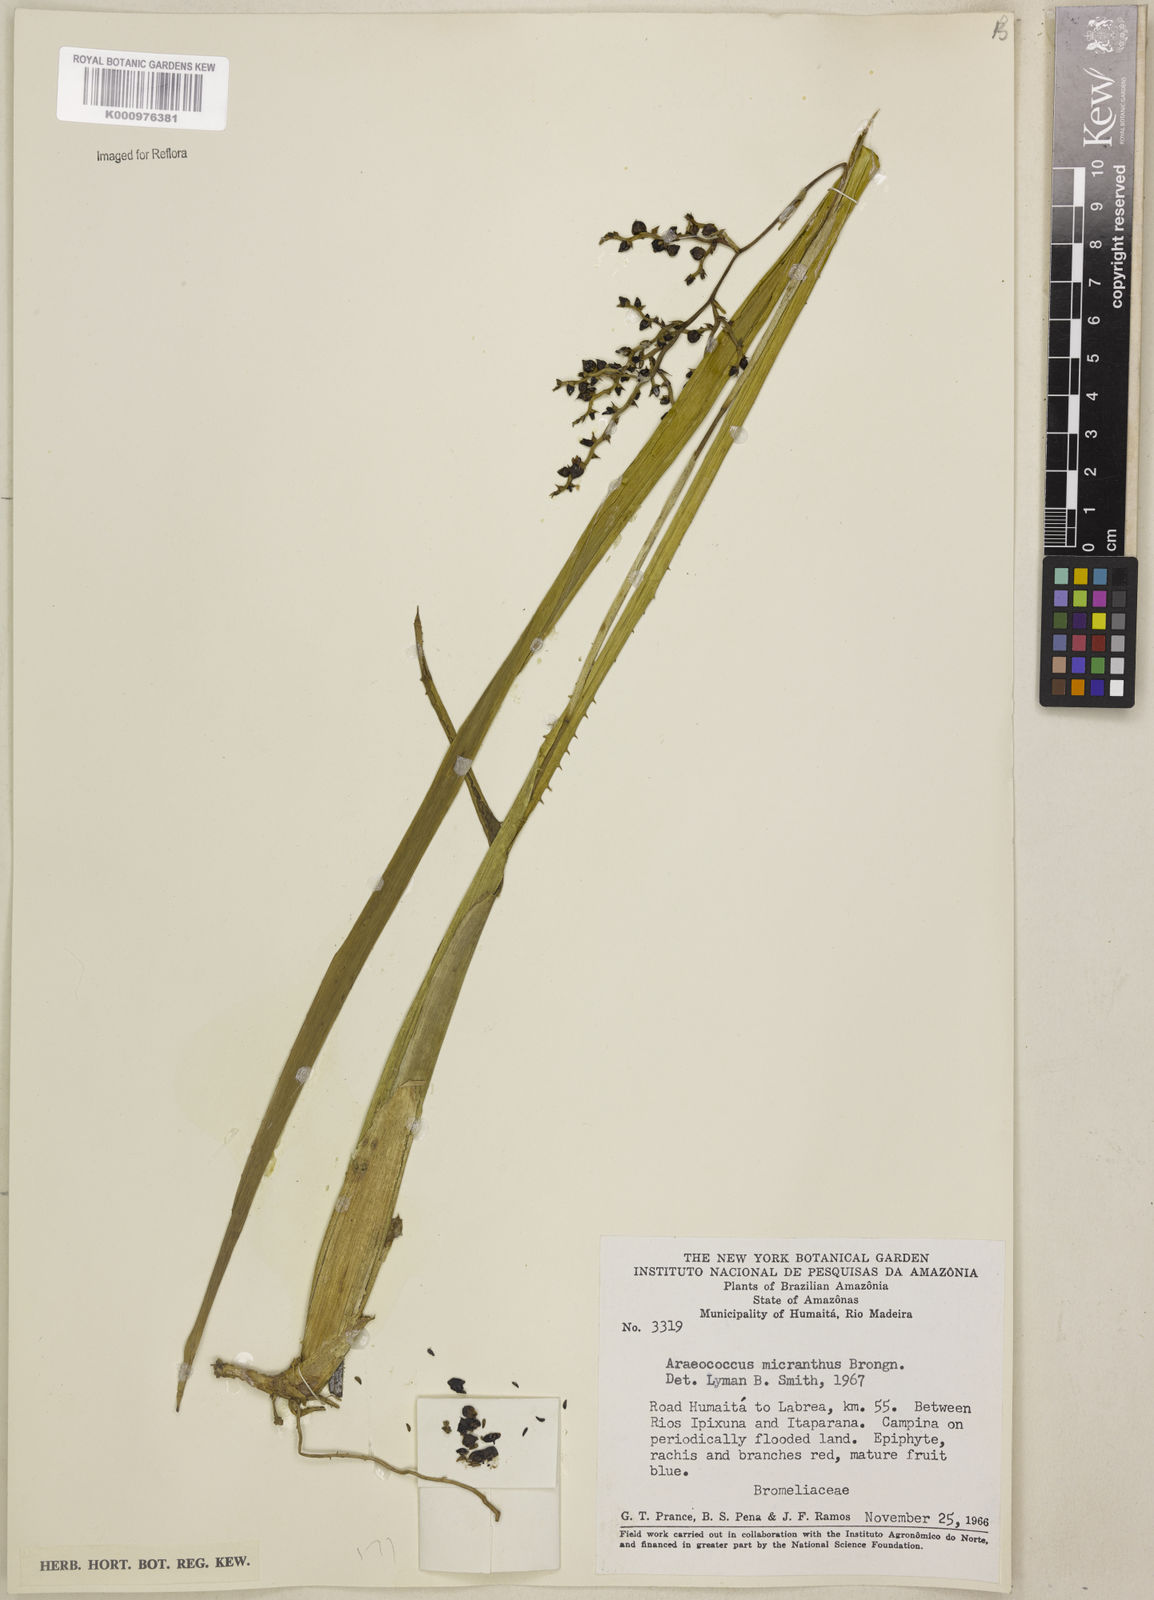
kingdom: Plantae
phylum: Tracheophyta
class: Liliopsida
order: Poales
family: Bromeliaceae
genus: Araeococcus
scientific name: Araeococcus micranthus
